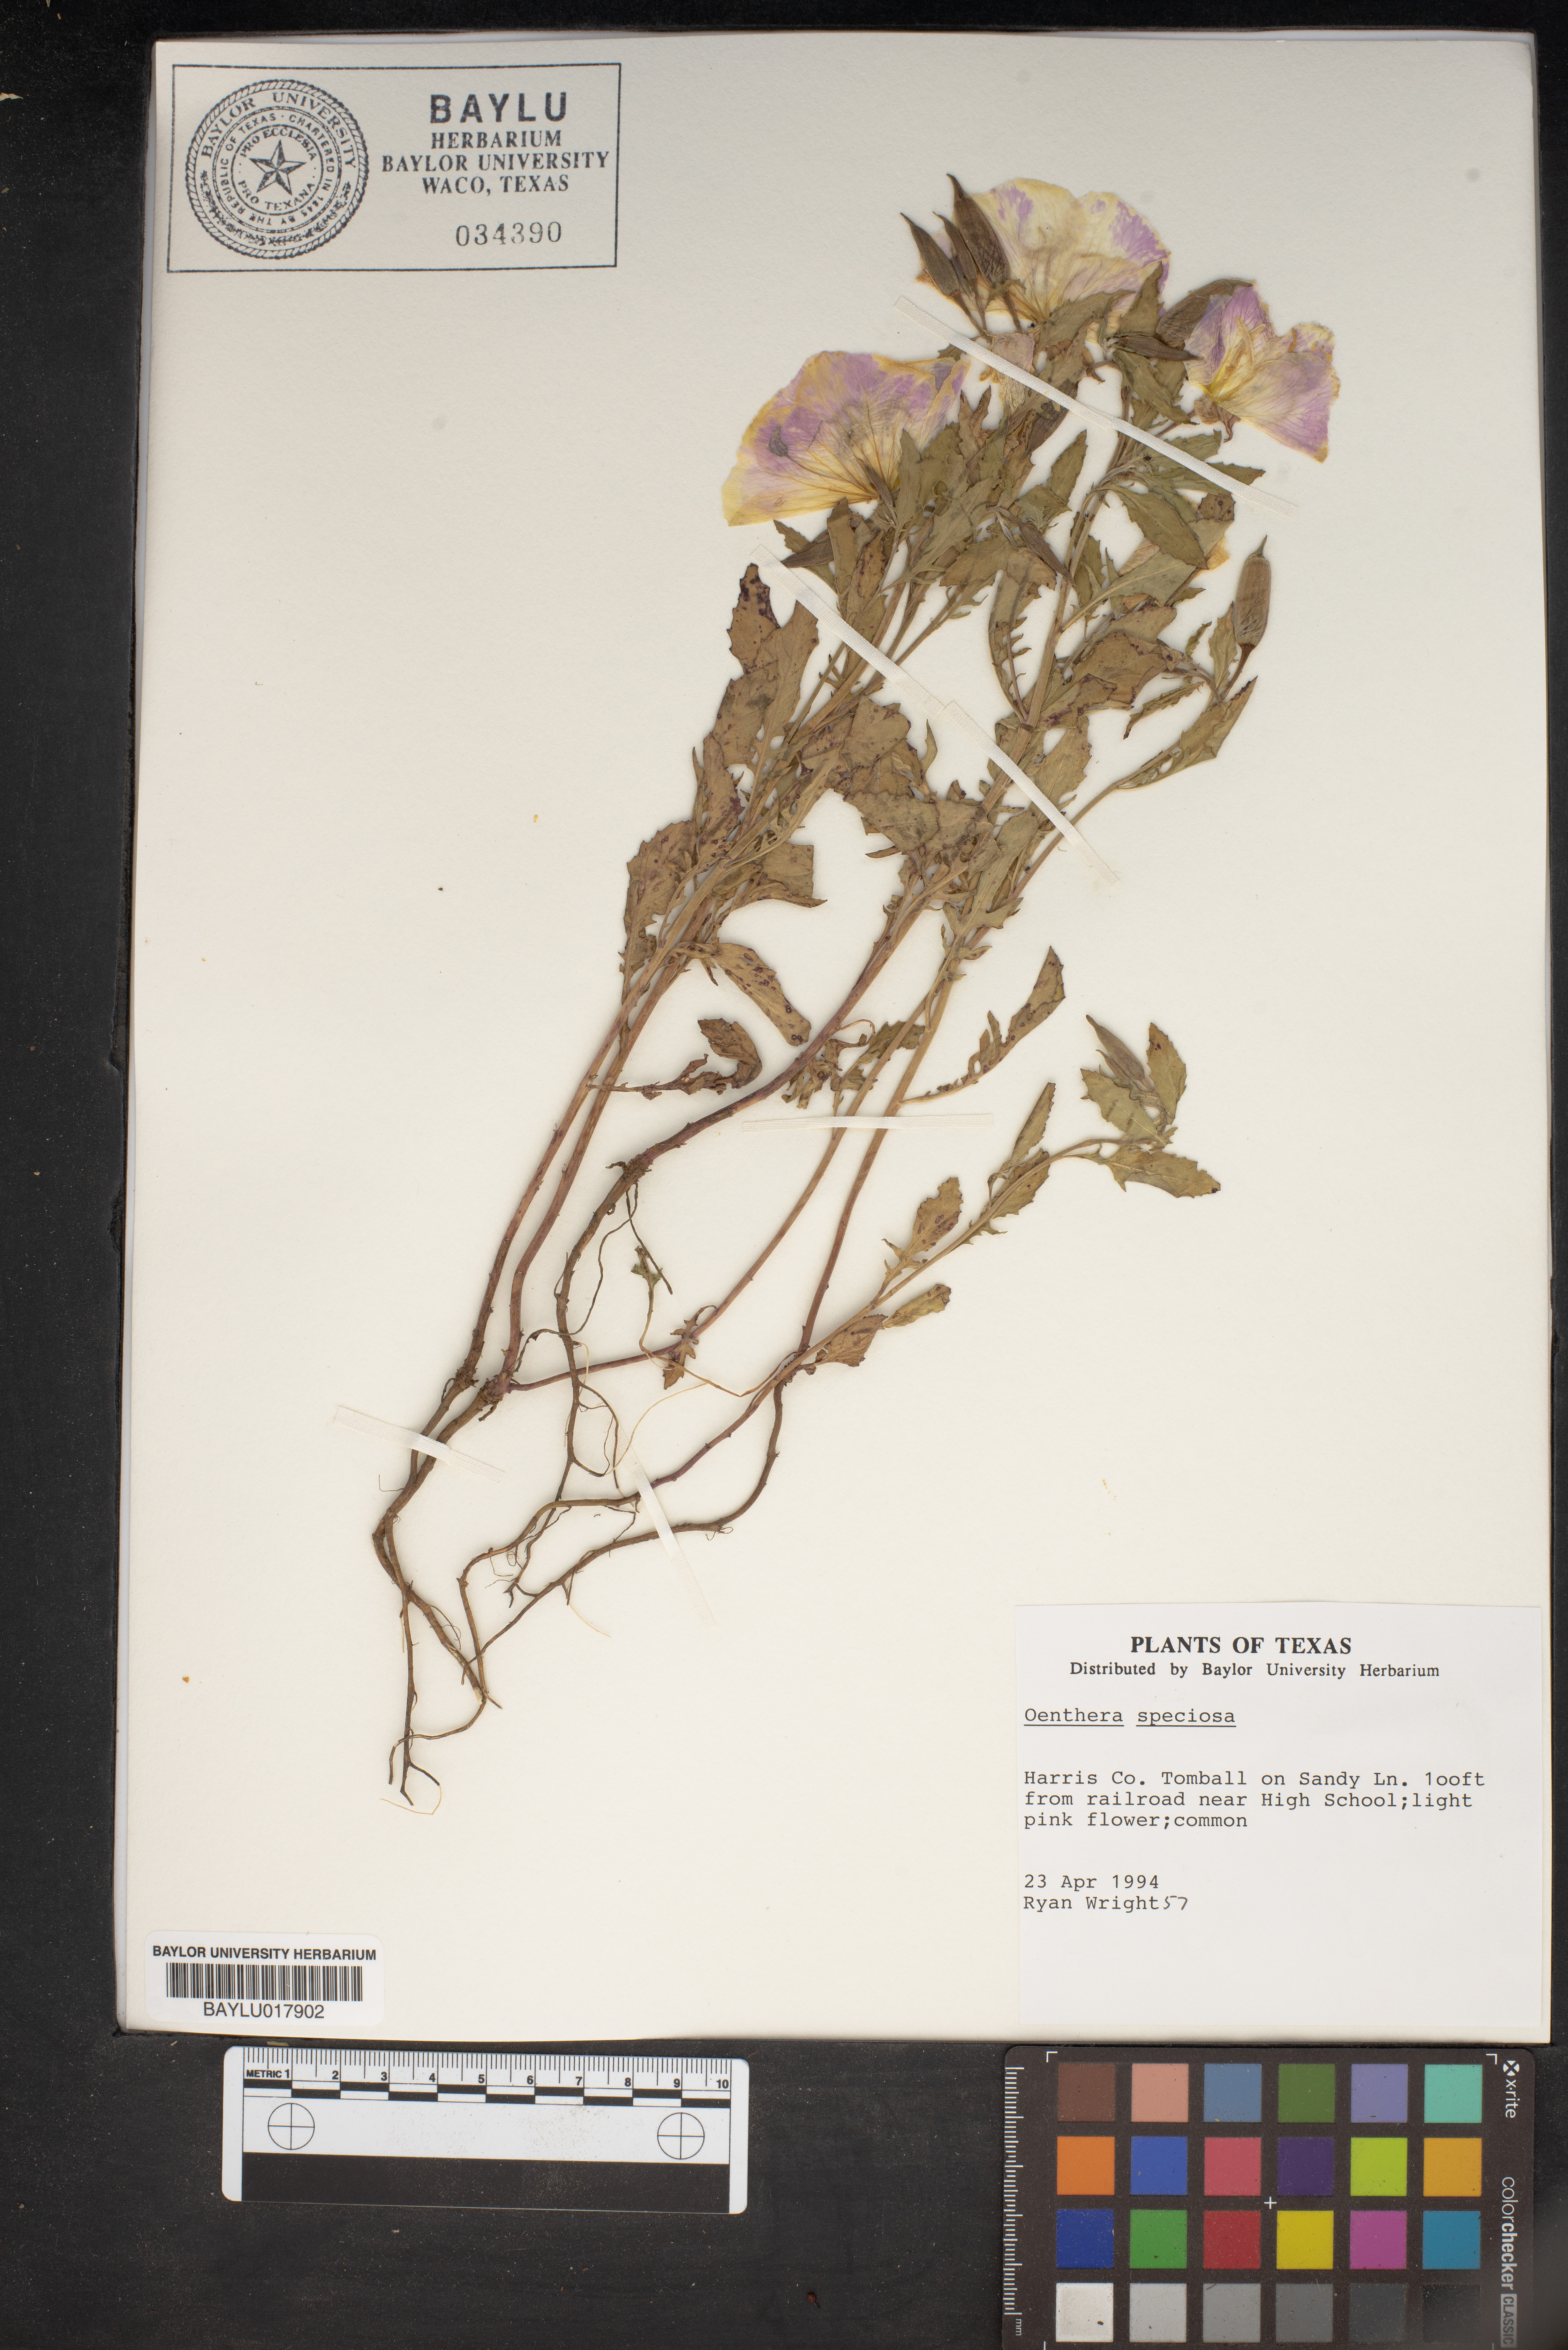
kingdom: Plantae
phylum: Tracheophyta
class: Magnoliopsida
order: Myrtales
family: Onagraceae
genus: Oenothera
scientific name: Oenothera speciosa
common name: White evening-primrose
